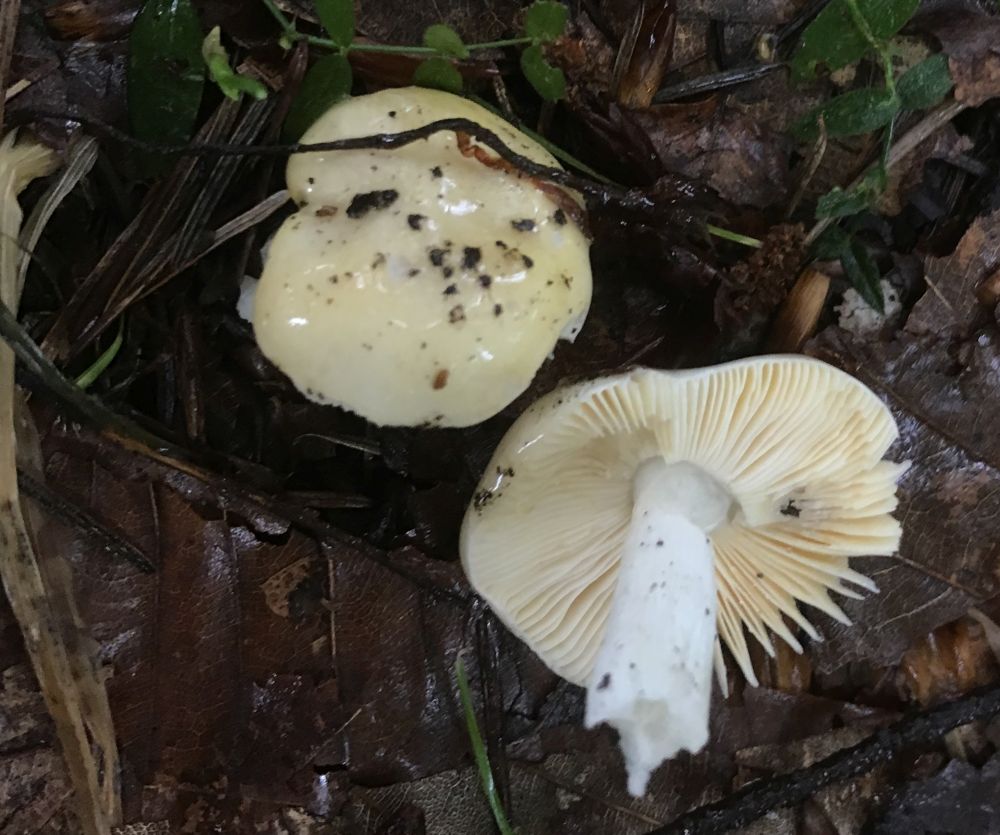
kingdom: Fungi
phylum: Basidiomycota
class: Agaricomycetes
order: Russulales
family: Russulaceae
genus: Russula
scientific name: Russula risigallina
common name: abrikos-skørhat
